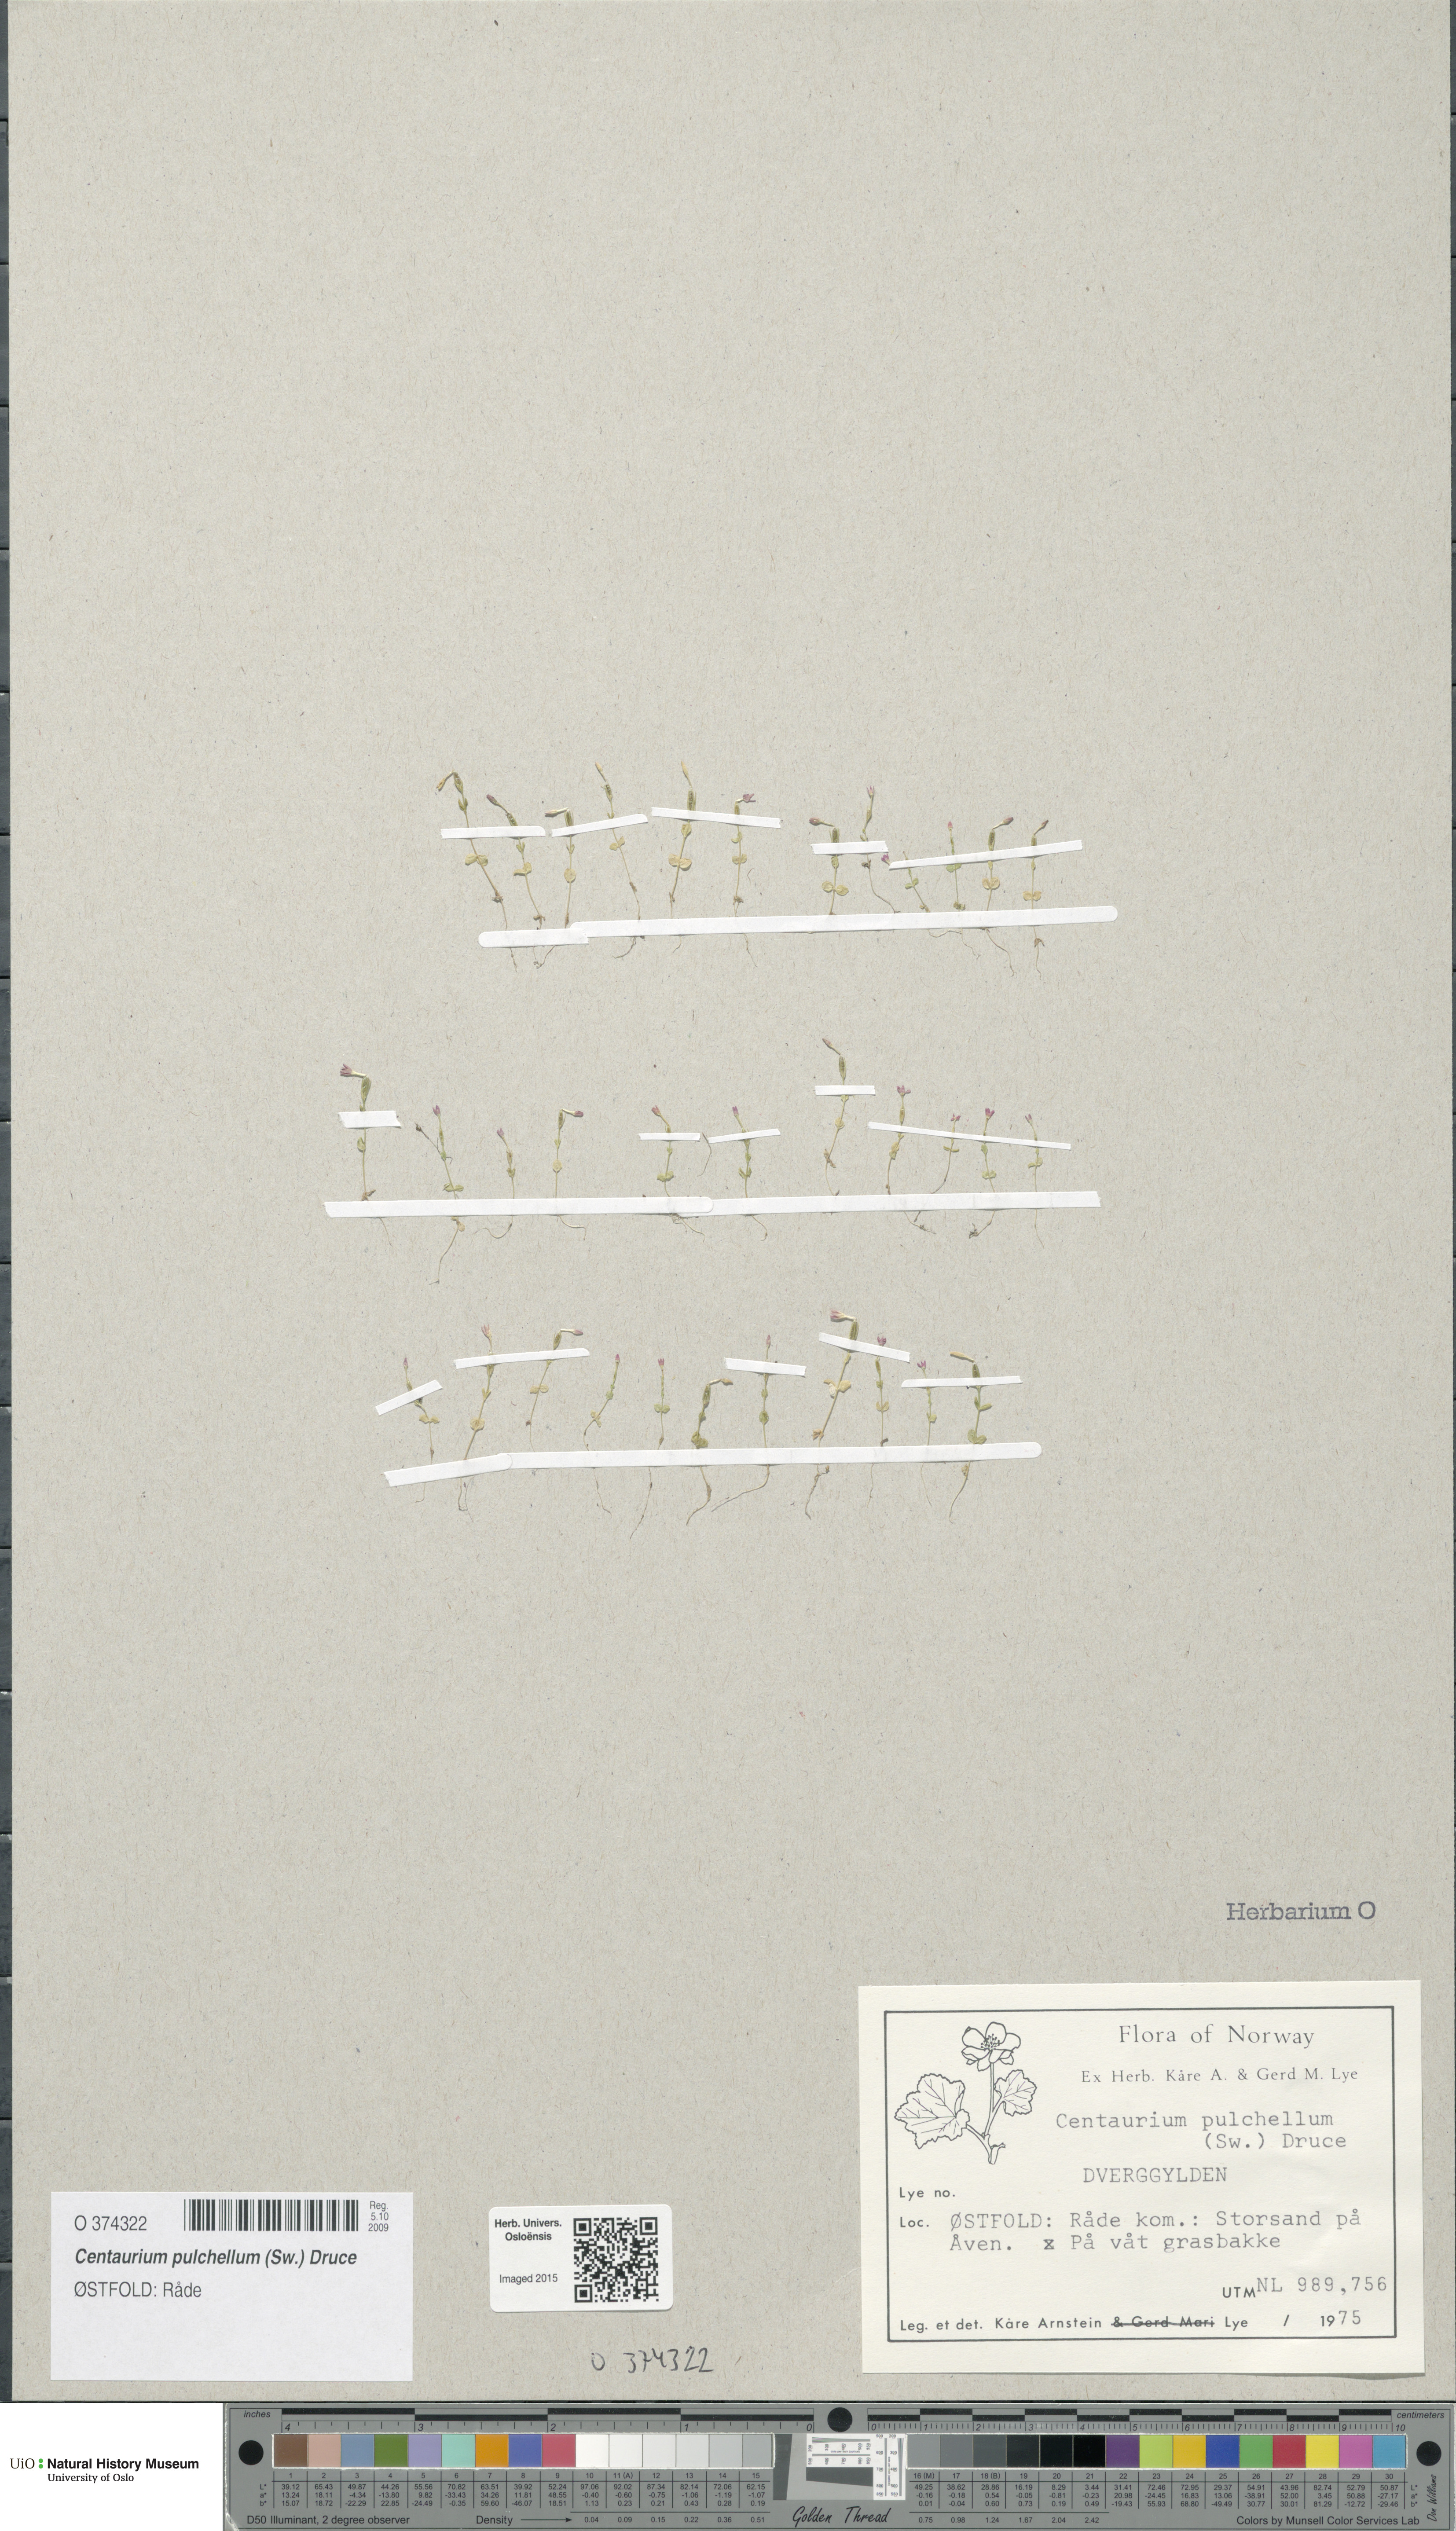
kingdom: Plantae
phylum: Tracheophyta
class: Magnoliopsida
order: Gentianales
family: Gentianaceae
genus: Centaurium
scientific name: Centaurium pulchellum
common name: Lesser centaury
